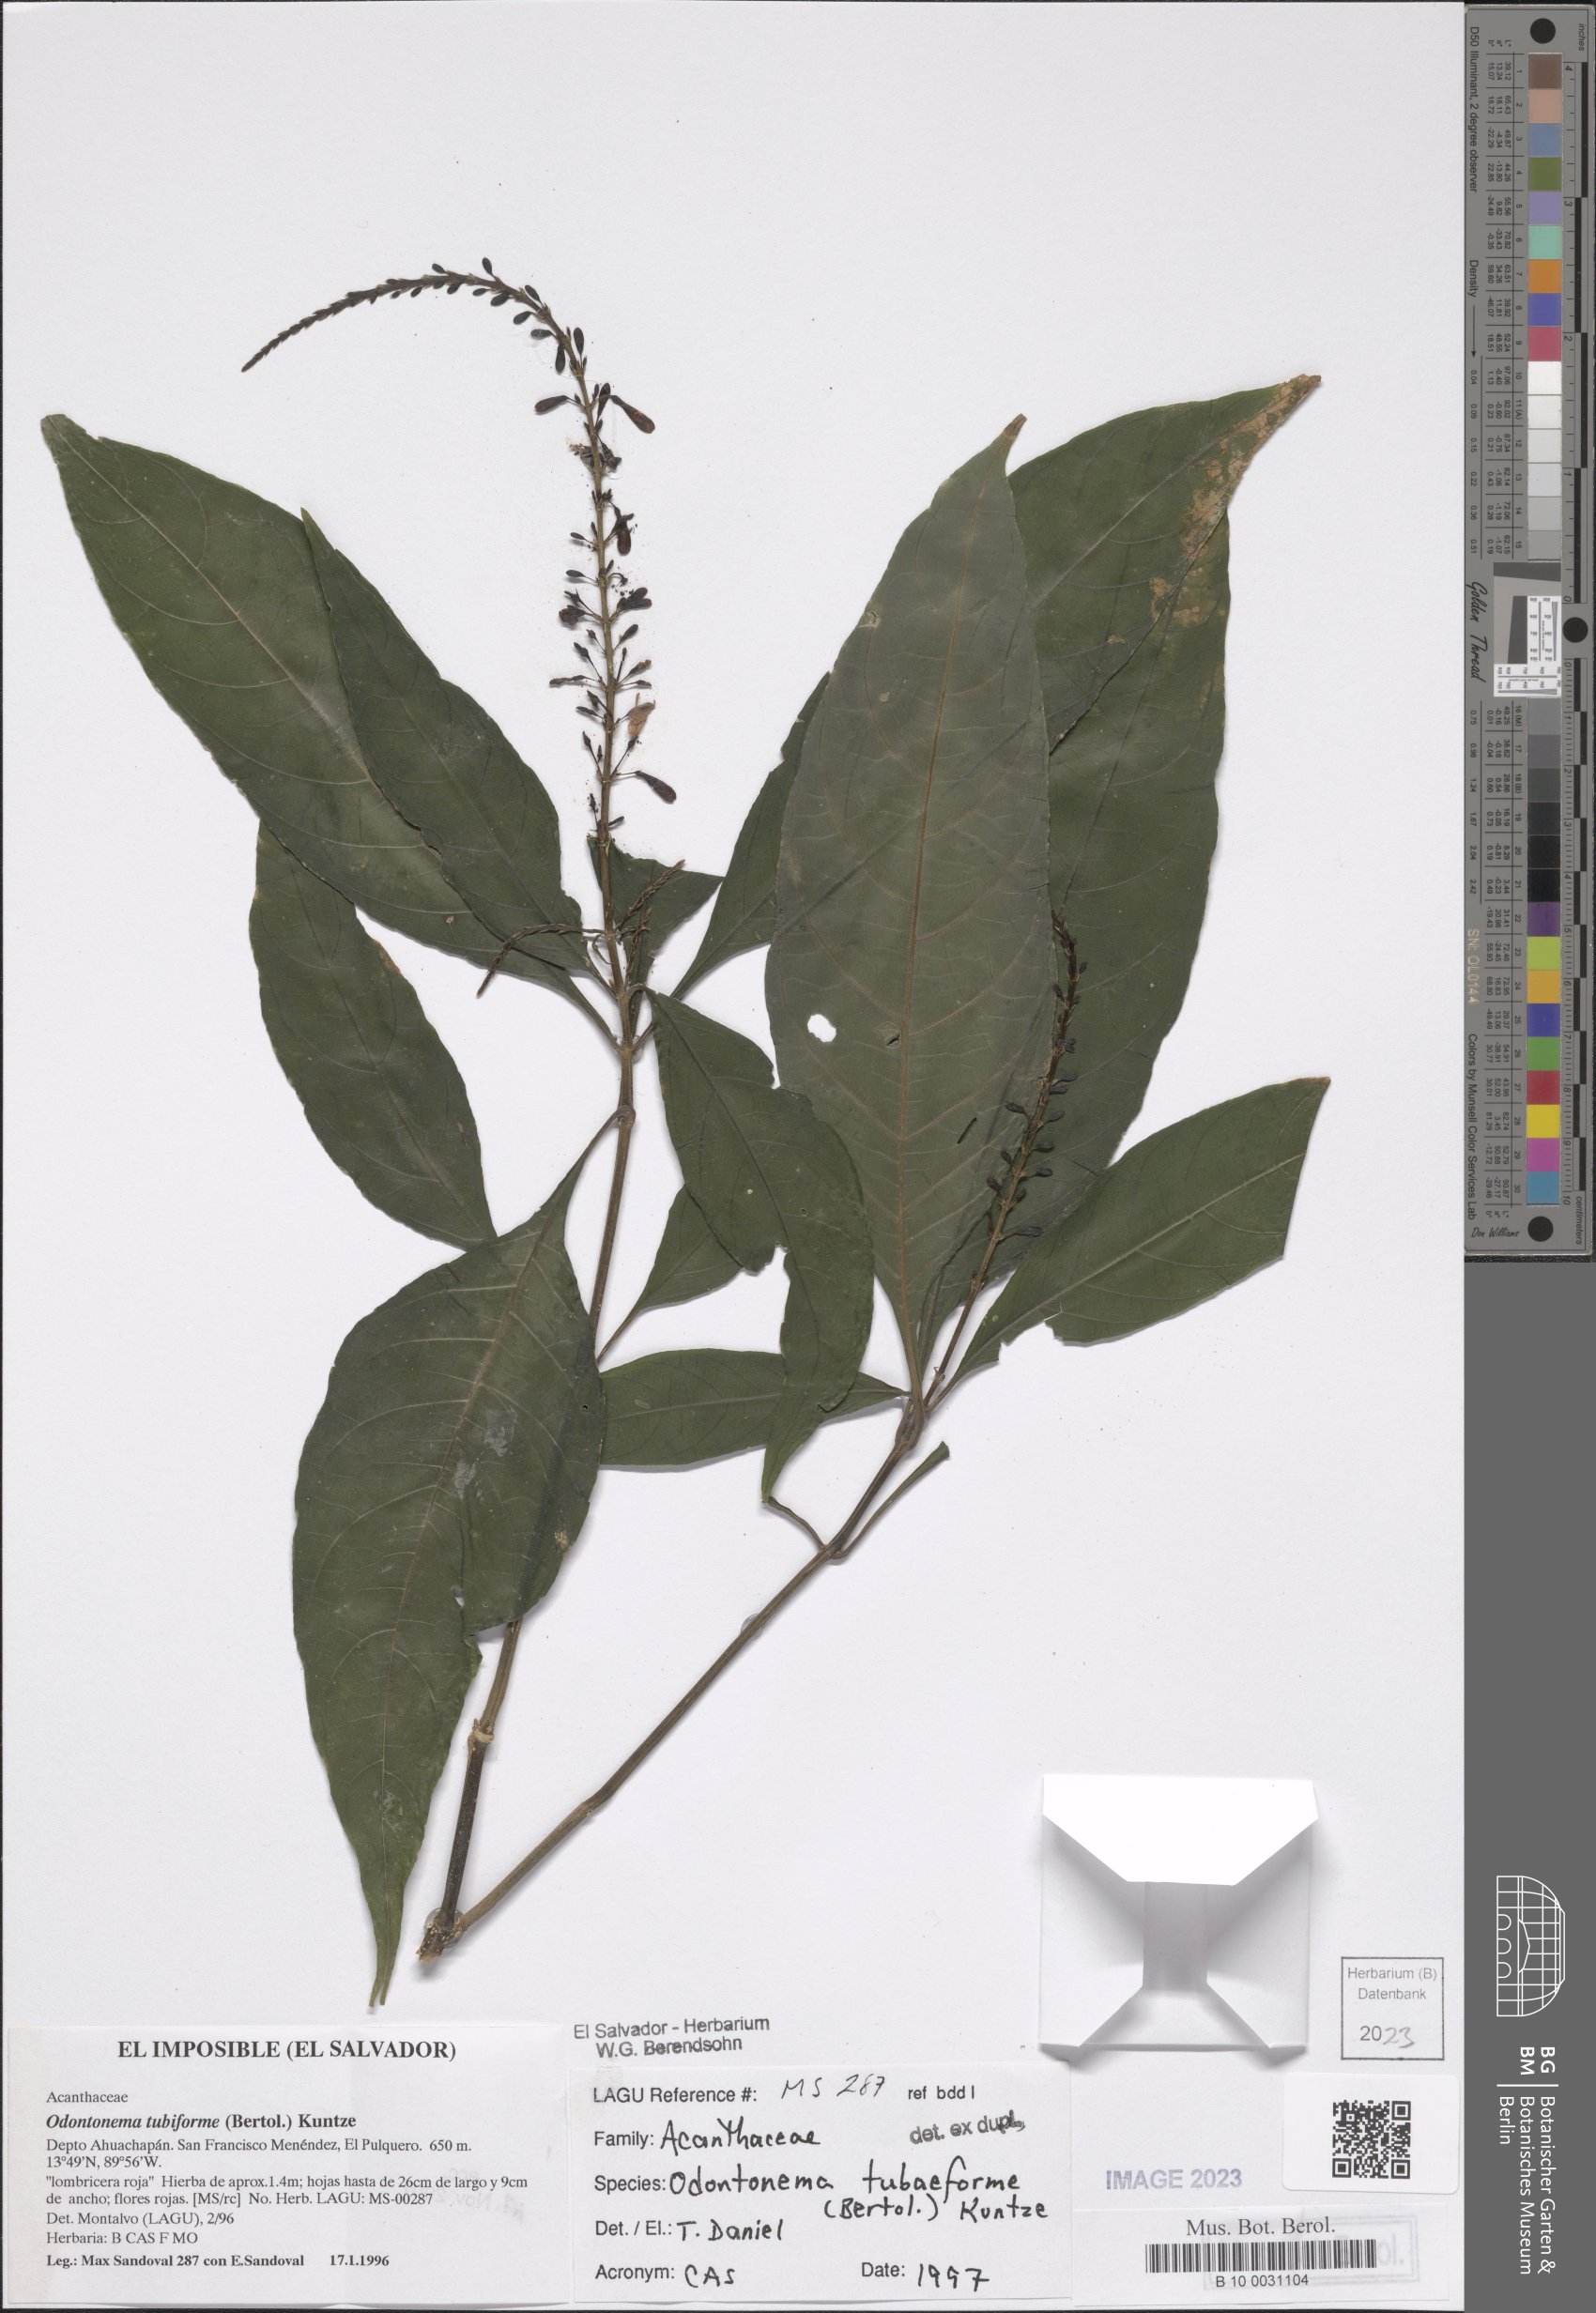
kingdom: Plantae
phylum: Tracheophyta
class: Magnoliopsida
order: Lamiales
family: Acanthaceae
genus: Odontonema
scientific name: Odontonema tubaeforme
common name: Firespike
